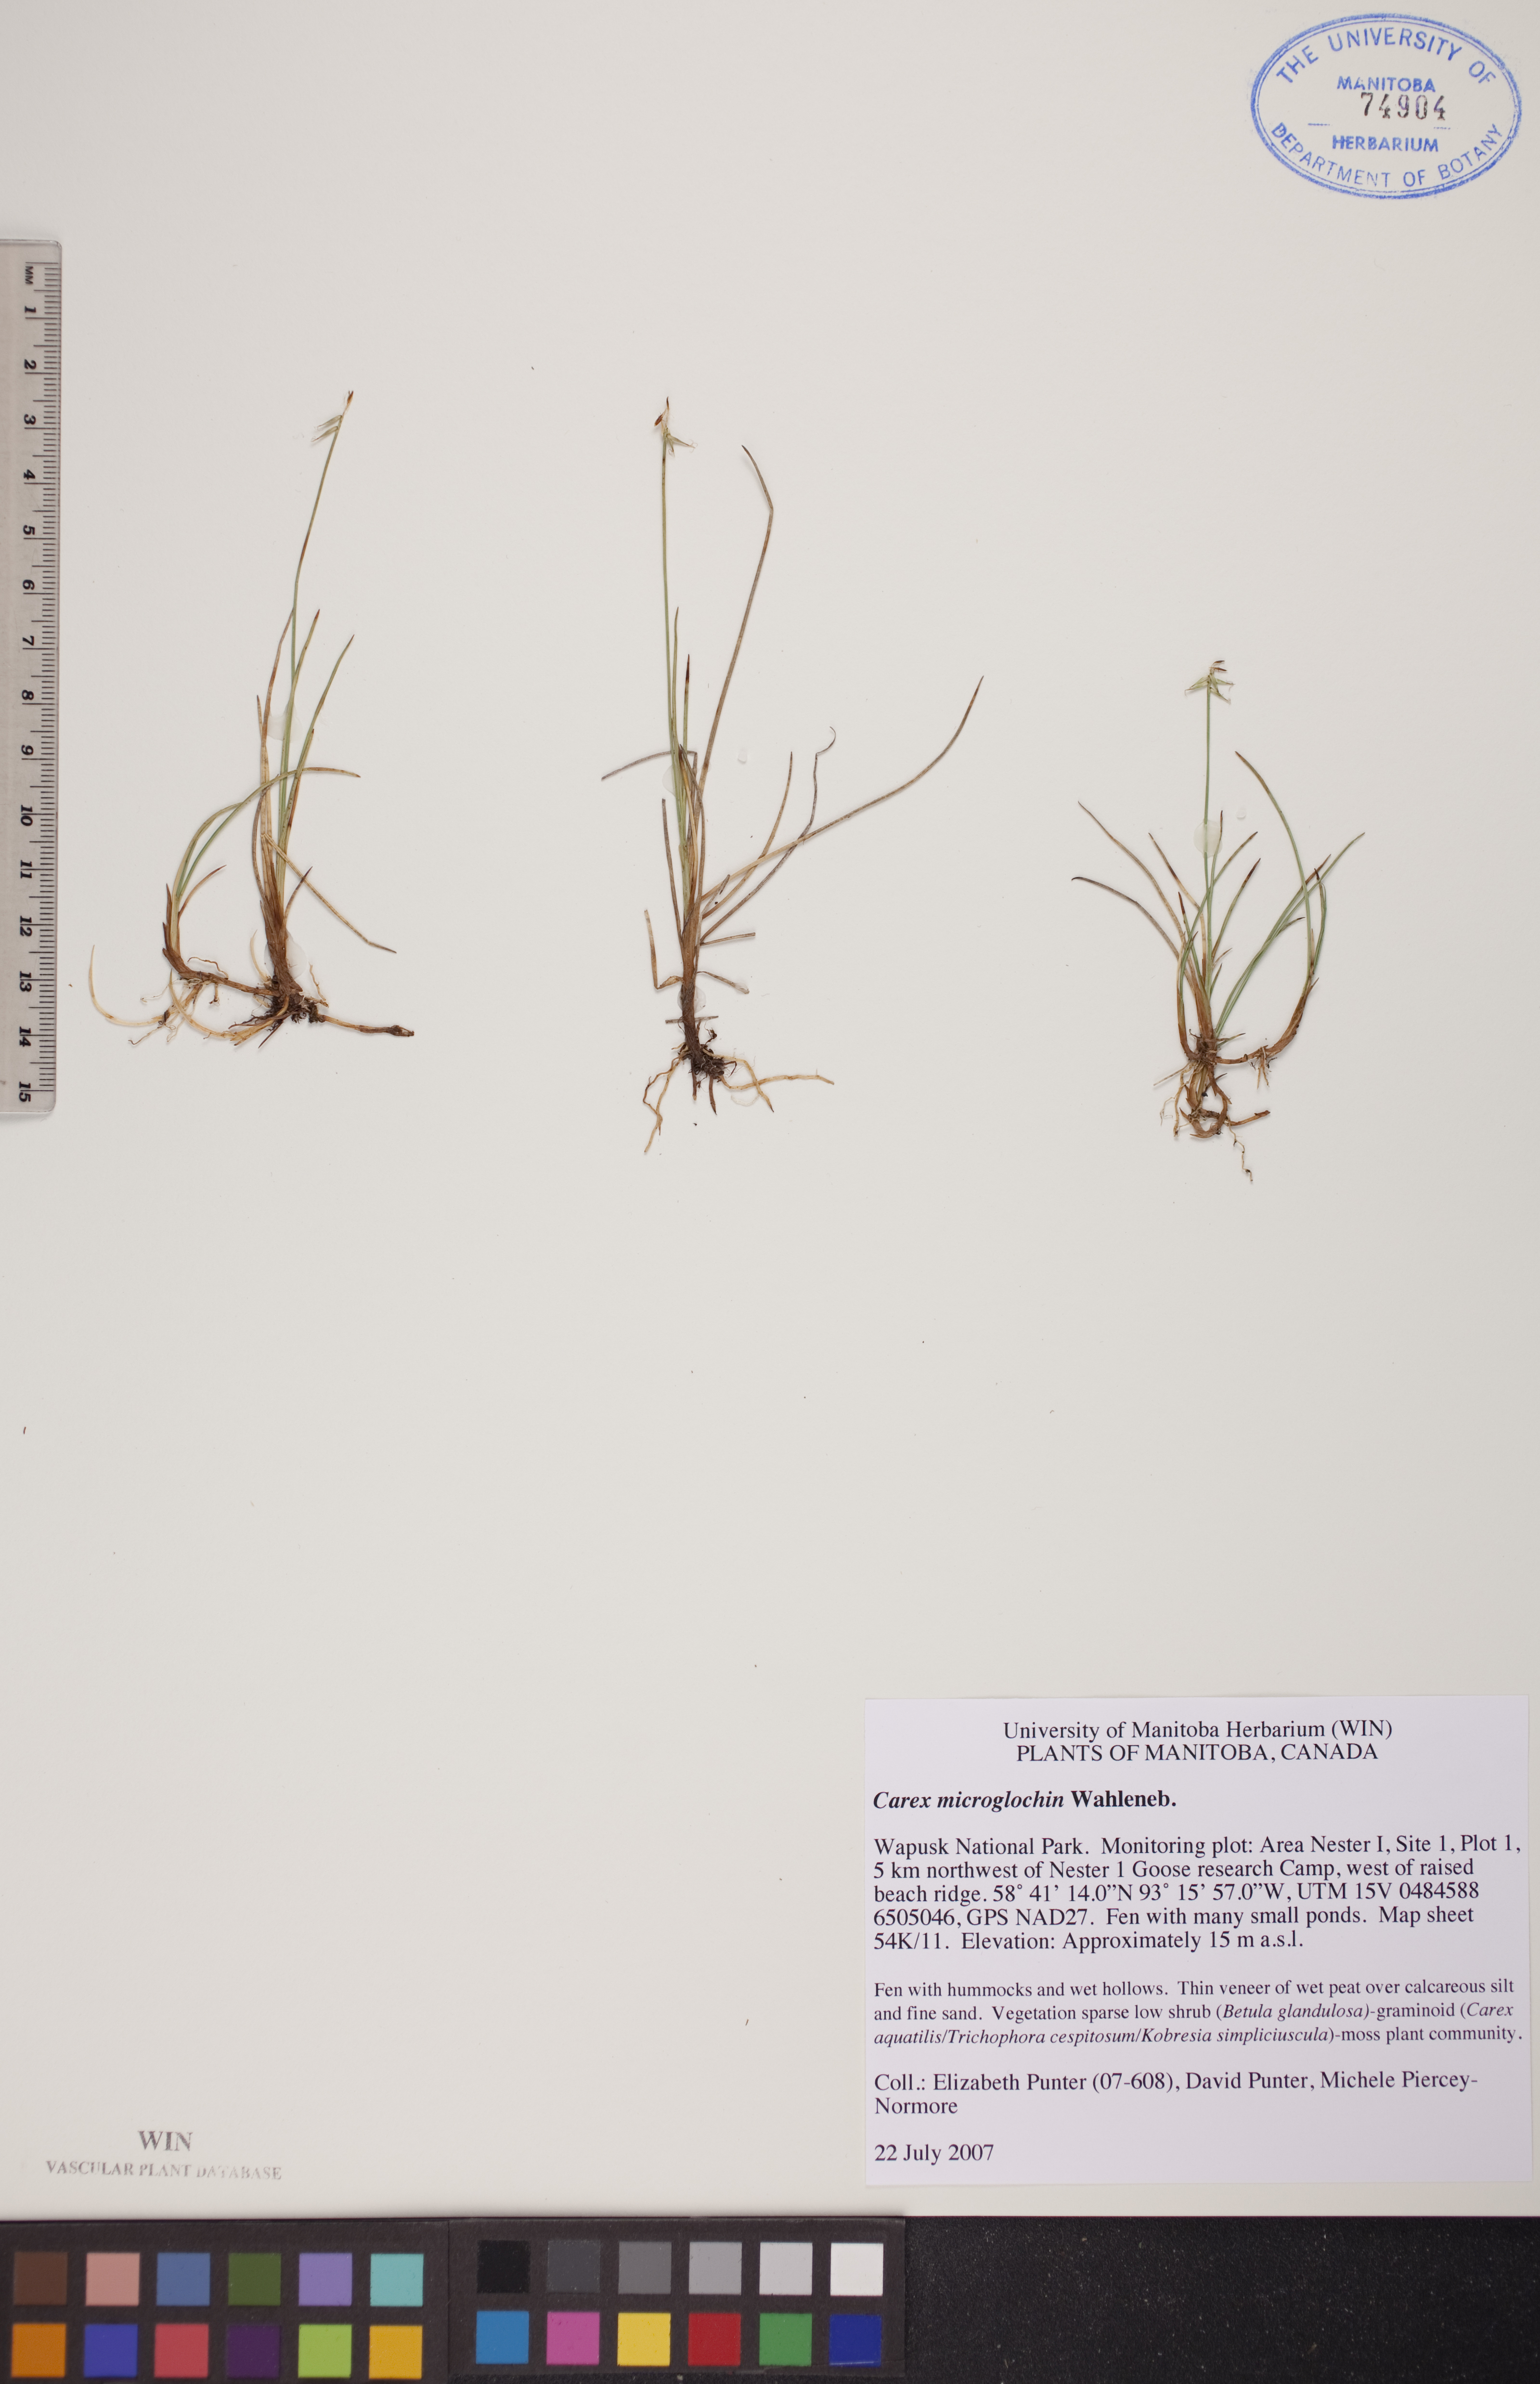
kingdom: Plantae
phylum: Tracheophyta
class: Liliopsida
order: Poales
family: Cyperaceae
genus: Carex
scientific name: Carex microglochin
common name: Bristle sedge
